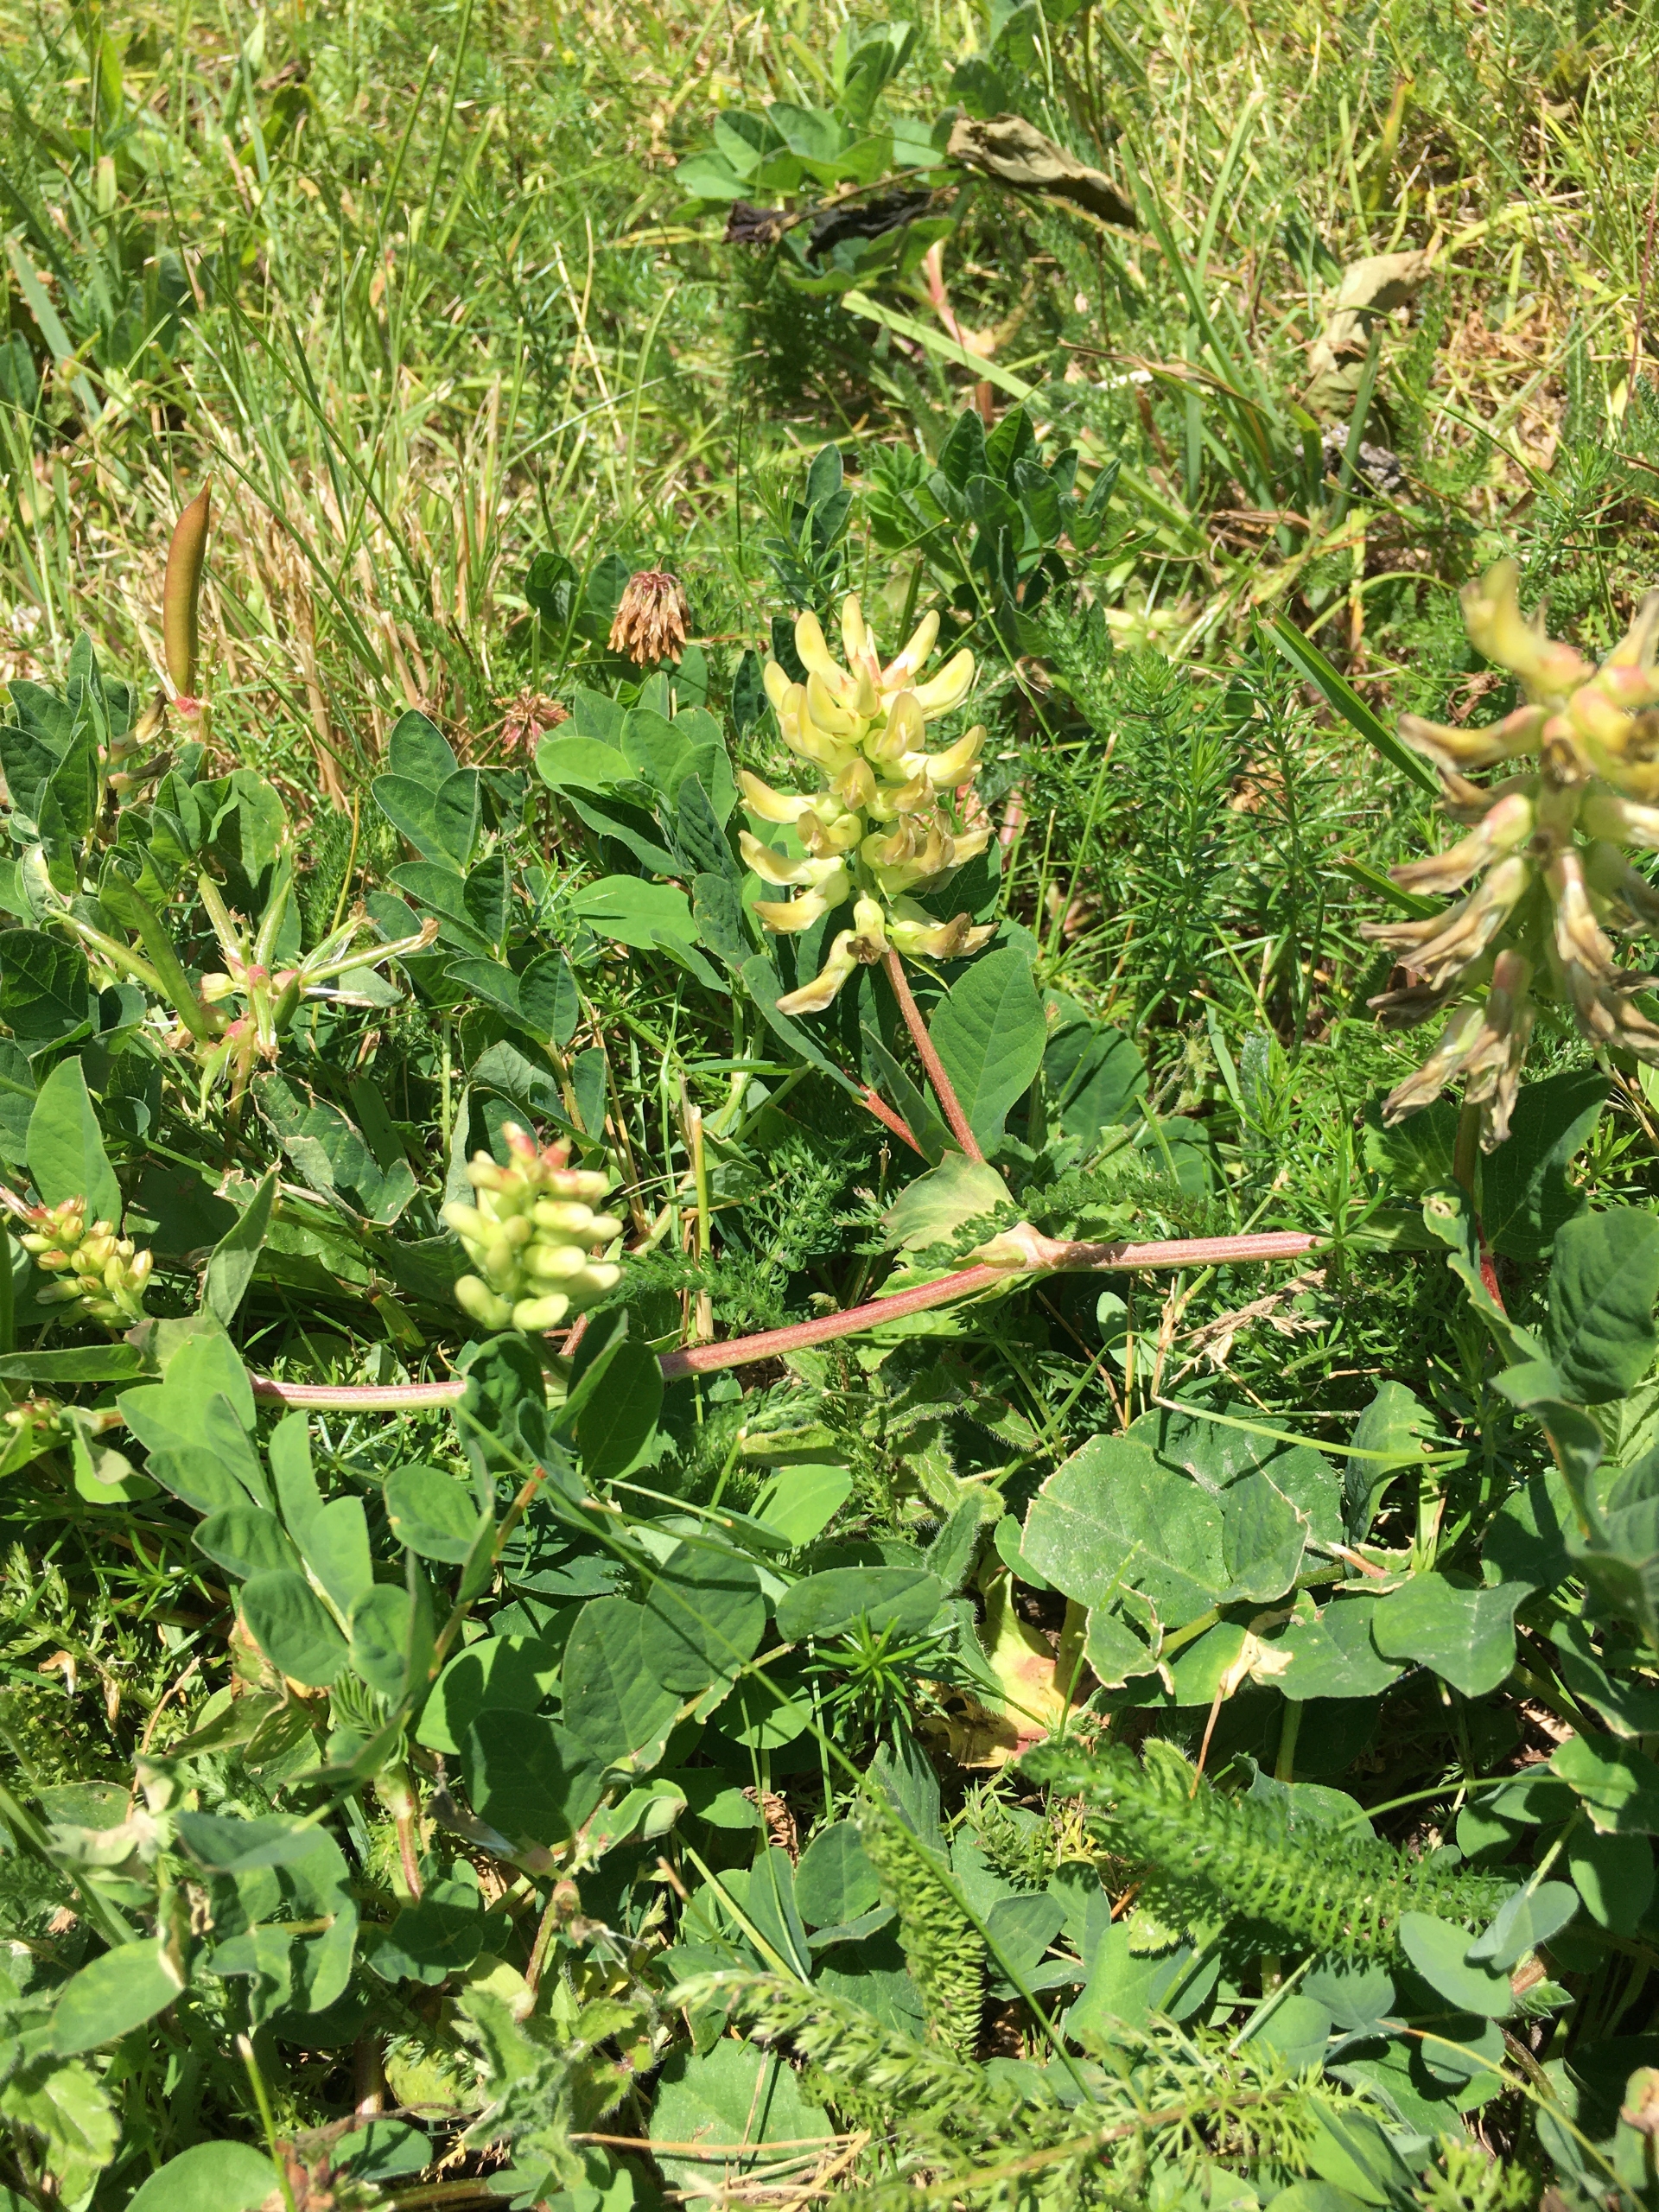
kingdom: Plantae
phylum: Tracheophyta
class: Magnoliopsida
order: Fabales
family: Fabaceae
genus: Astragalus
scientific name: Astragalus glycyphyllos
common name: Sød astragel
